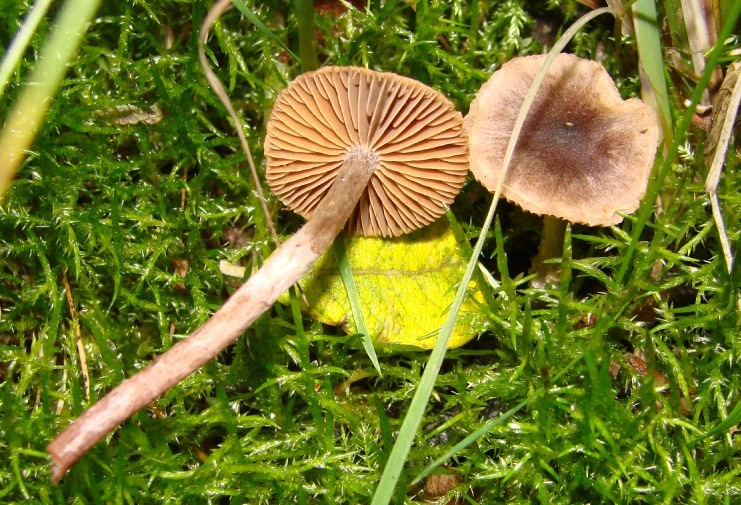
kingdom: Fungi
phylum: Basidiomycota
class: Agaricomycetes
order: Agaricales
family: Cortinariaceae
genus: Cortinarius
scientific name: Cortinarius decipiens
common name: mørkpuklet slørhat
